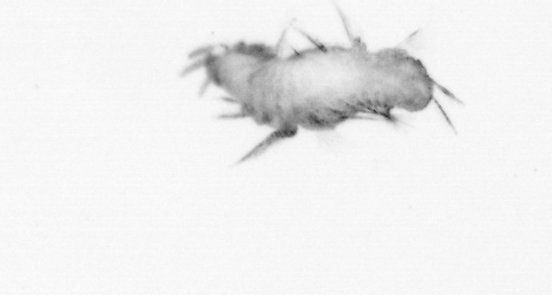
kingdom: Animalia
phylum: Annelida
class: Polychaeta
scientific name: Polychaeta
